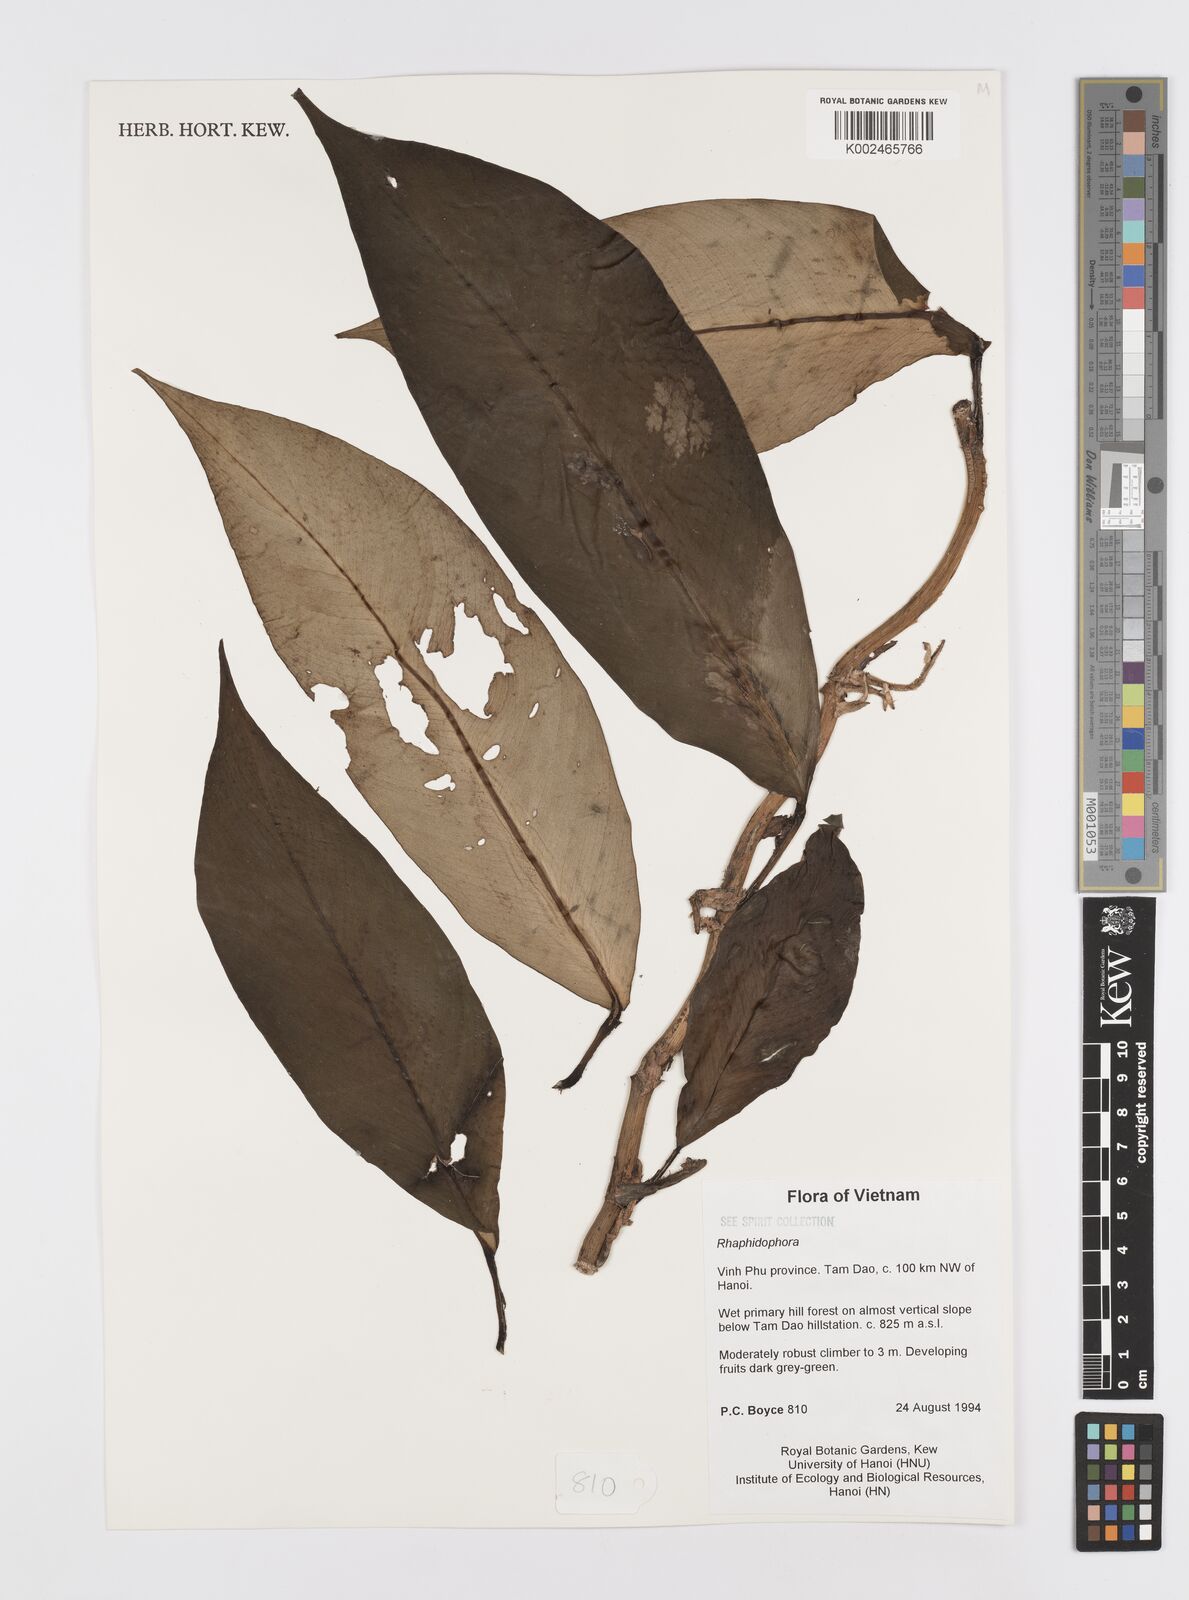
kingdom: Plantae
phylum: Tracheophyta
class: Liliopsida
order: Alismatales
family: Araceae
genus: Rhaphidophora
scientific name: Rhaphidophora
